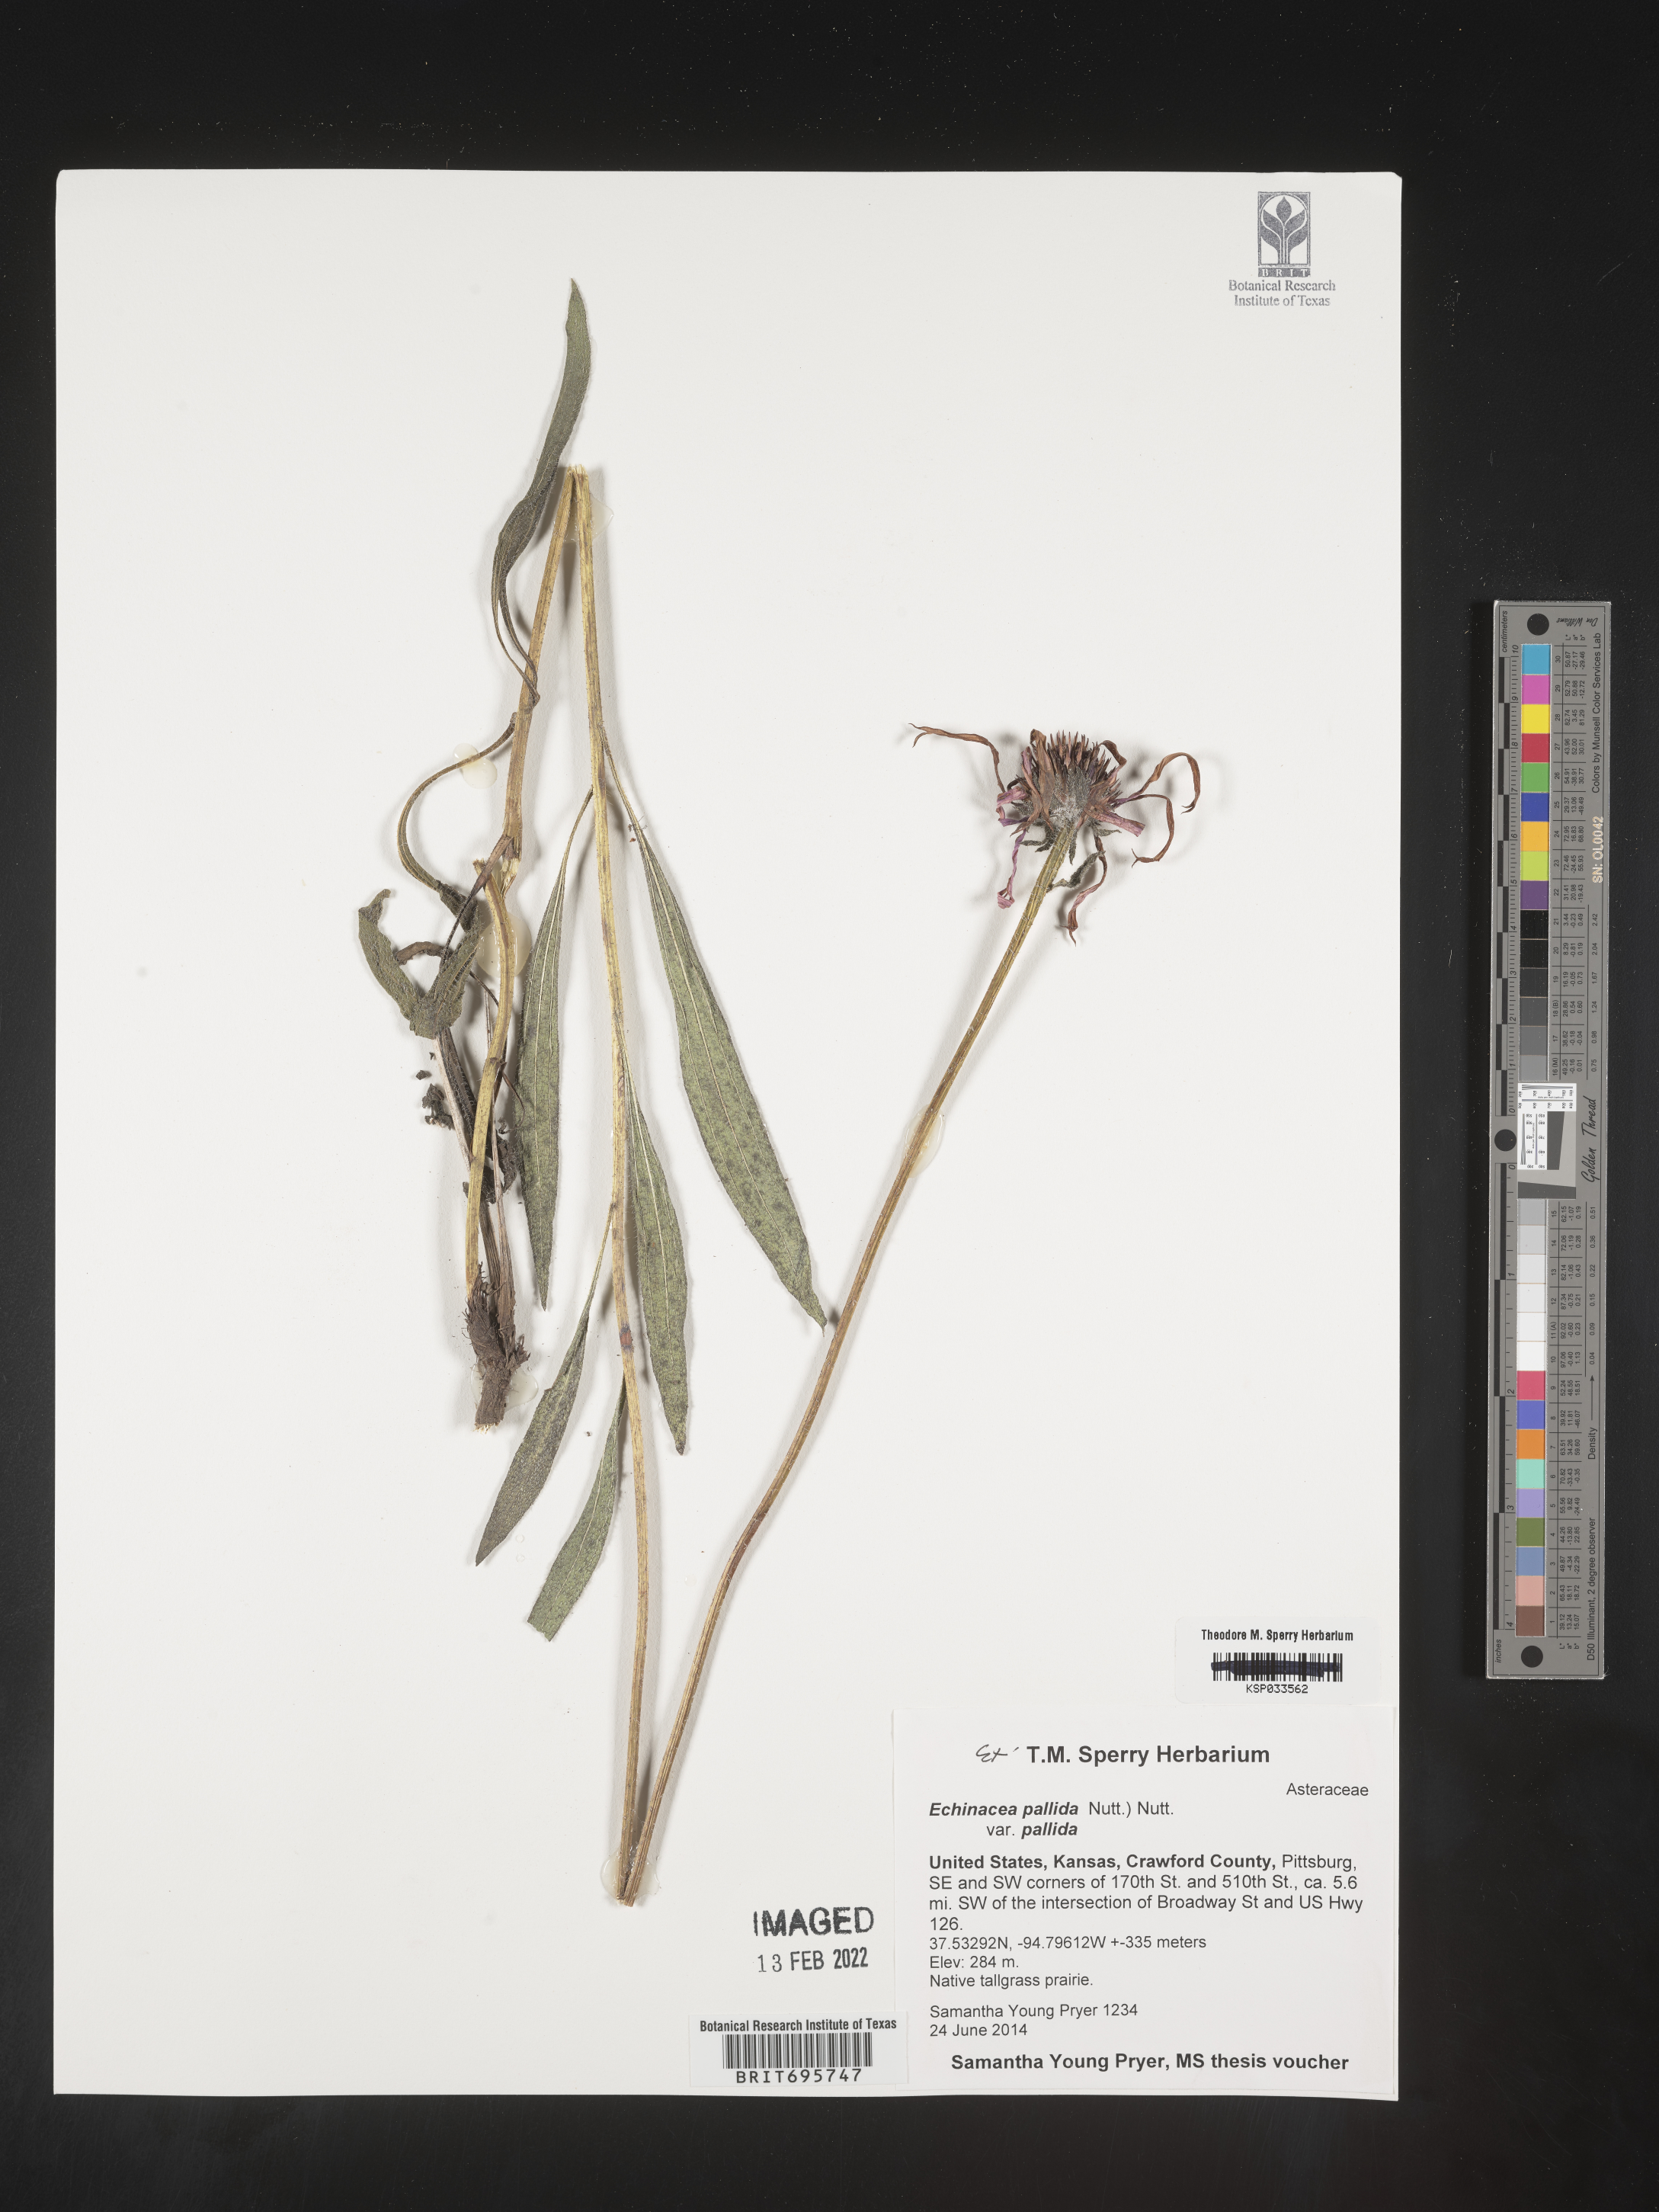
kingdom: Plantae
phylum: Tracheophyta
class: Magnoliopsida
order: Asterales
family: Asteraceae
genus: Echinacea
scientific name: Echinacea pallida
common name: Pale echinacea
